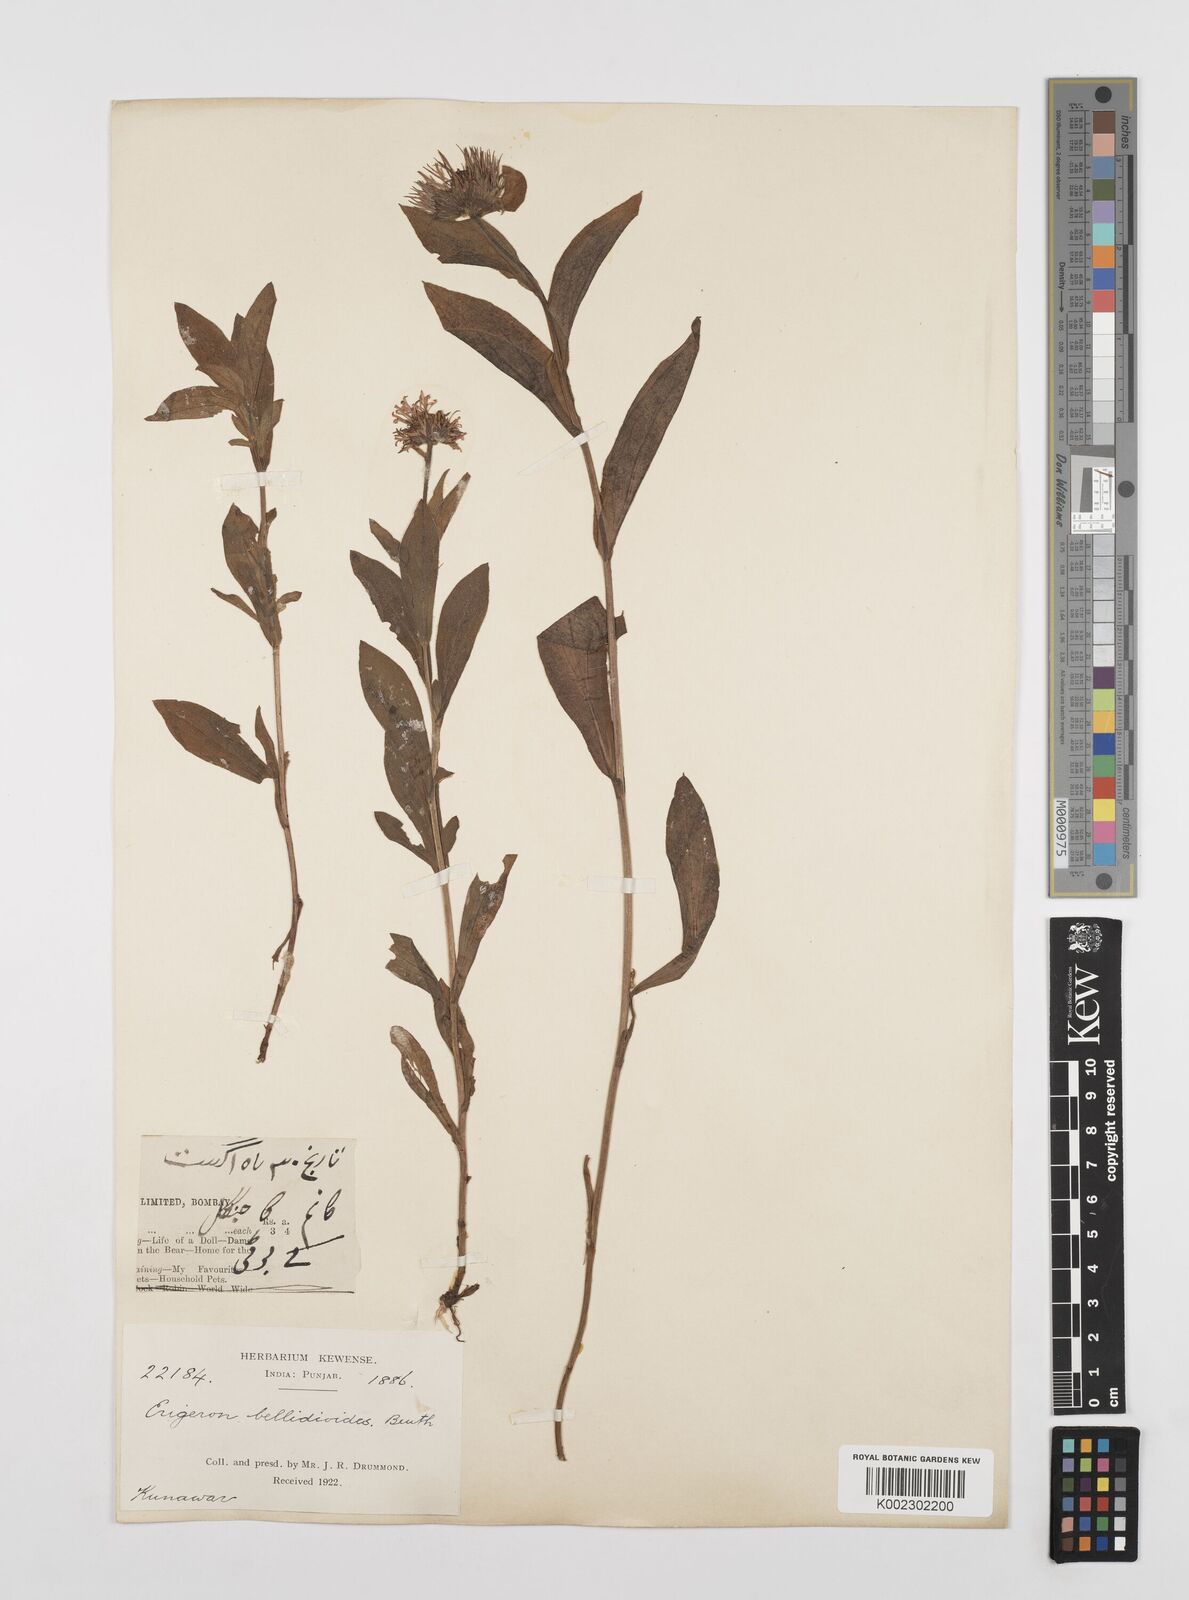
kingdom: Plantae
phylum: Tracheophyta
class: Magnoliopsida
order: Asterales
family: Asteraceae
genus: Erigeron
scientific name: Erigeron multiradiatus
